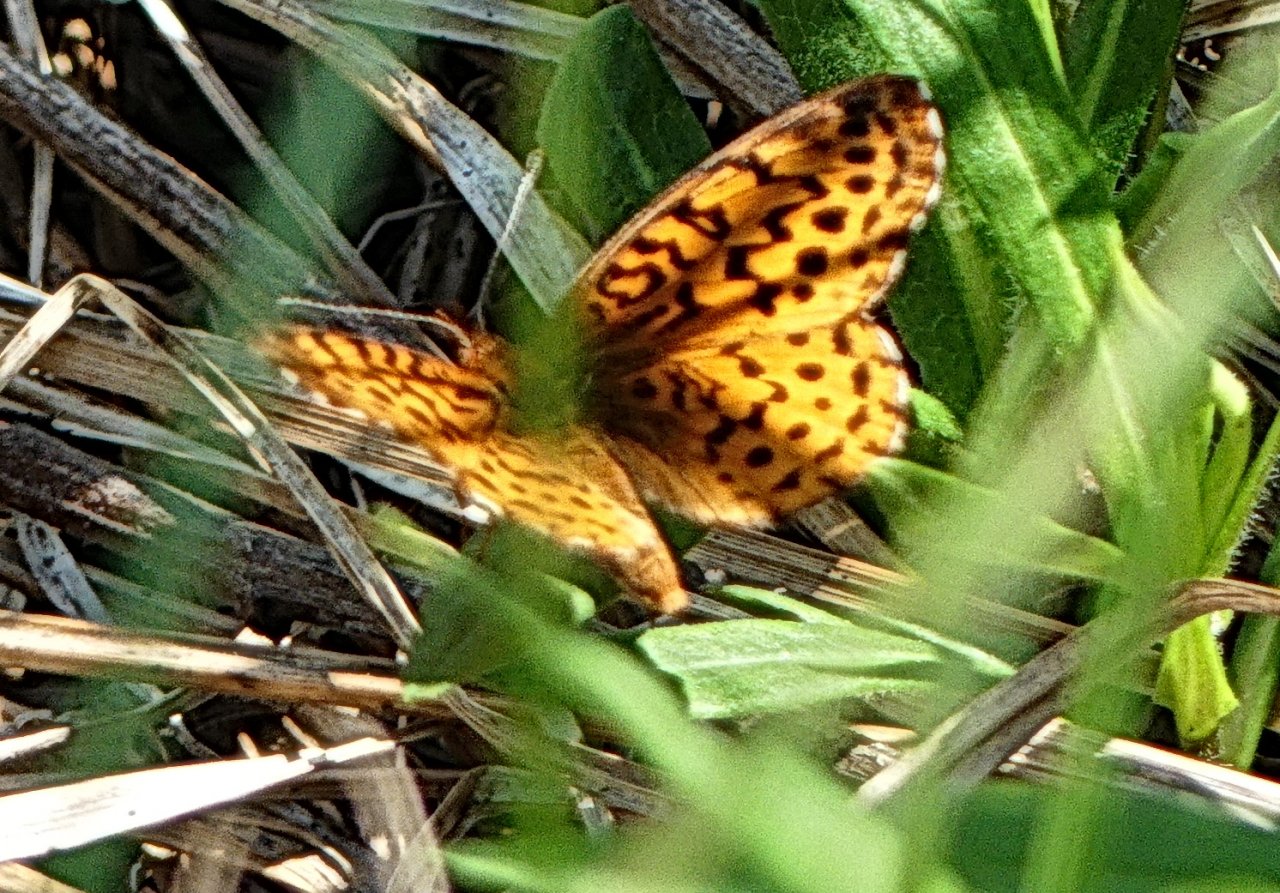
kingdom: Animalia
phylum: Arthropoda
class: Insecta
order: Lepidoptera
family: Nymphalidae
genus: Clossiana
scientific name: Clossiana toddi
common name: Meadow Fritillary
